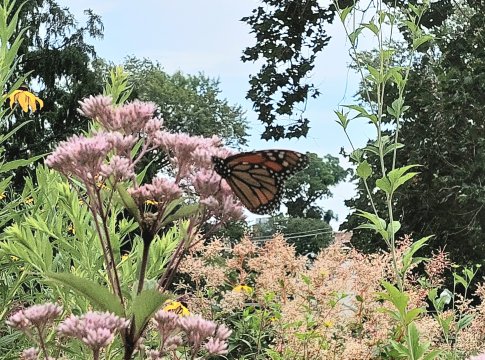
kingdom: Animalia
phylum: Arthropoda
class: Insecta
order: Lepidoptera
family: Nymphalidae
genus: Danaus
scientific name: Danaus plexippus
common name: Monarch
